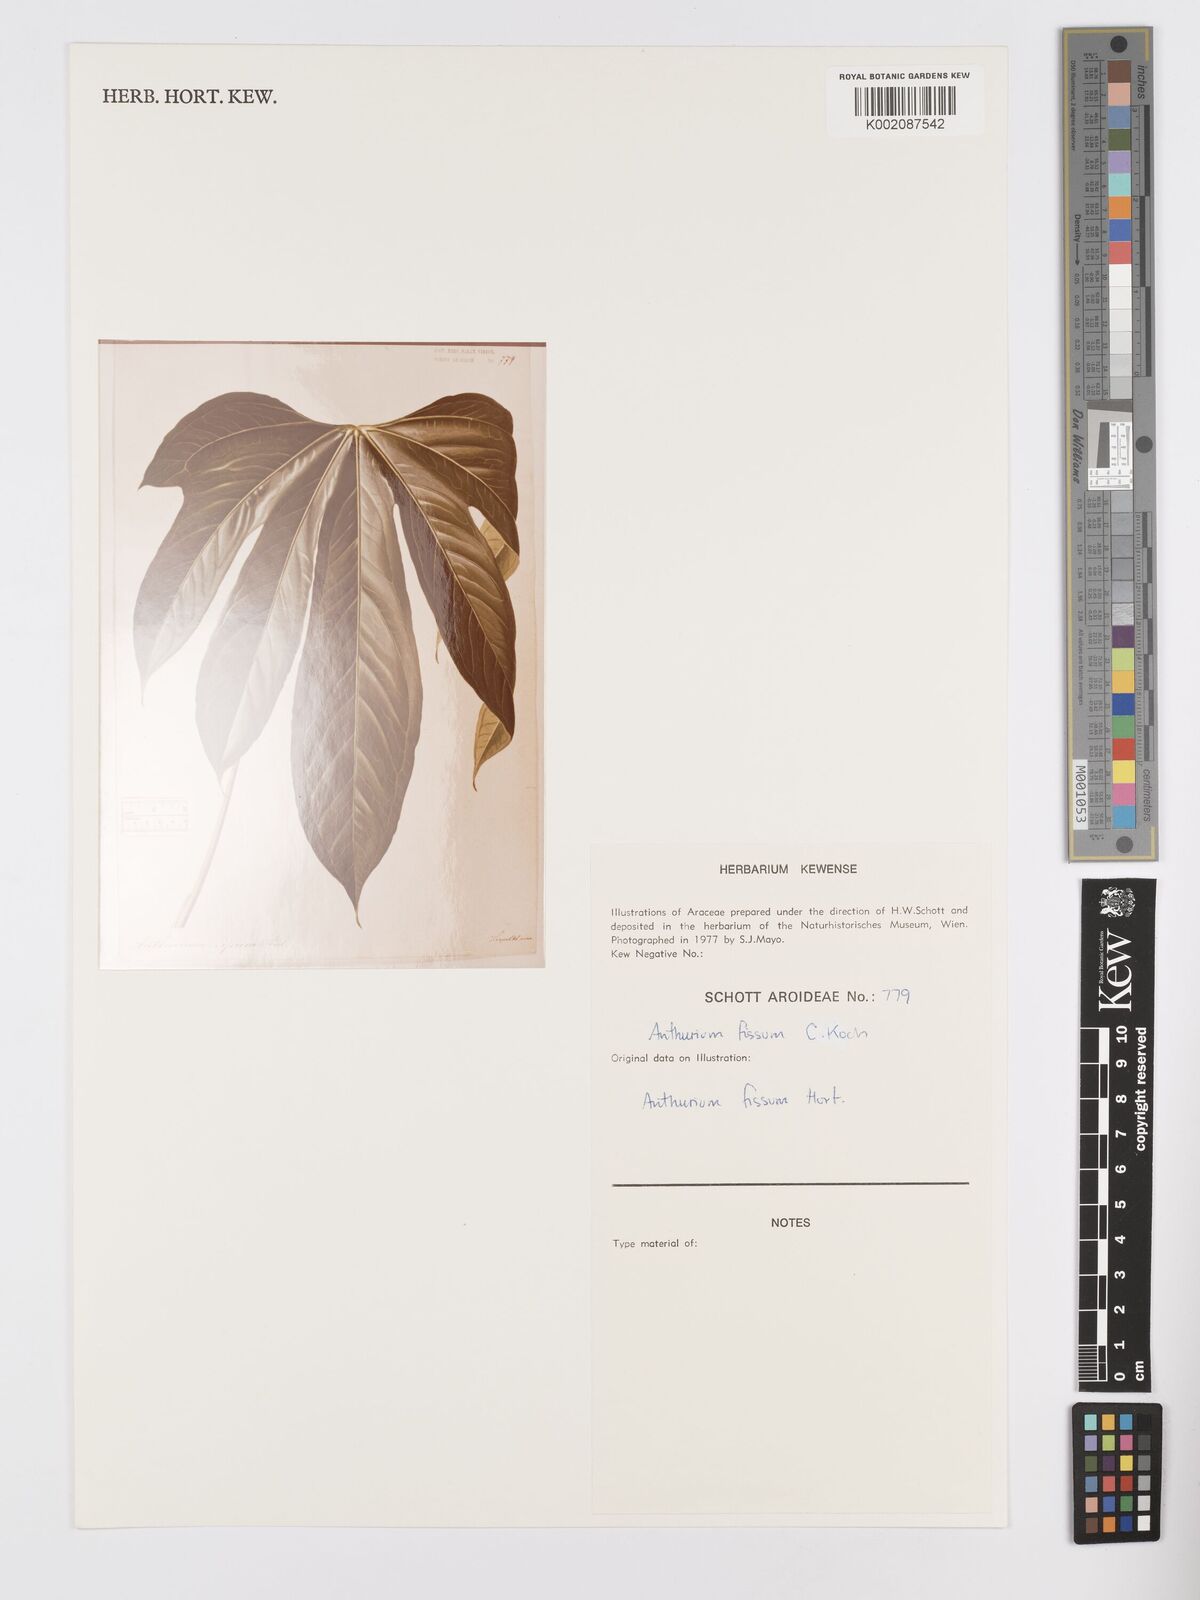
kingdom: Plantae
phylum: Tracheophyta
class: Liliopsida
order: Alismatales
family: Araceae
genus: Anthurium
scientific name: Anthurium
